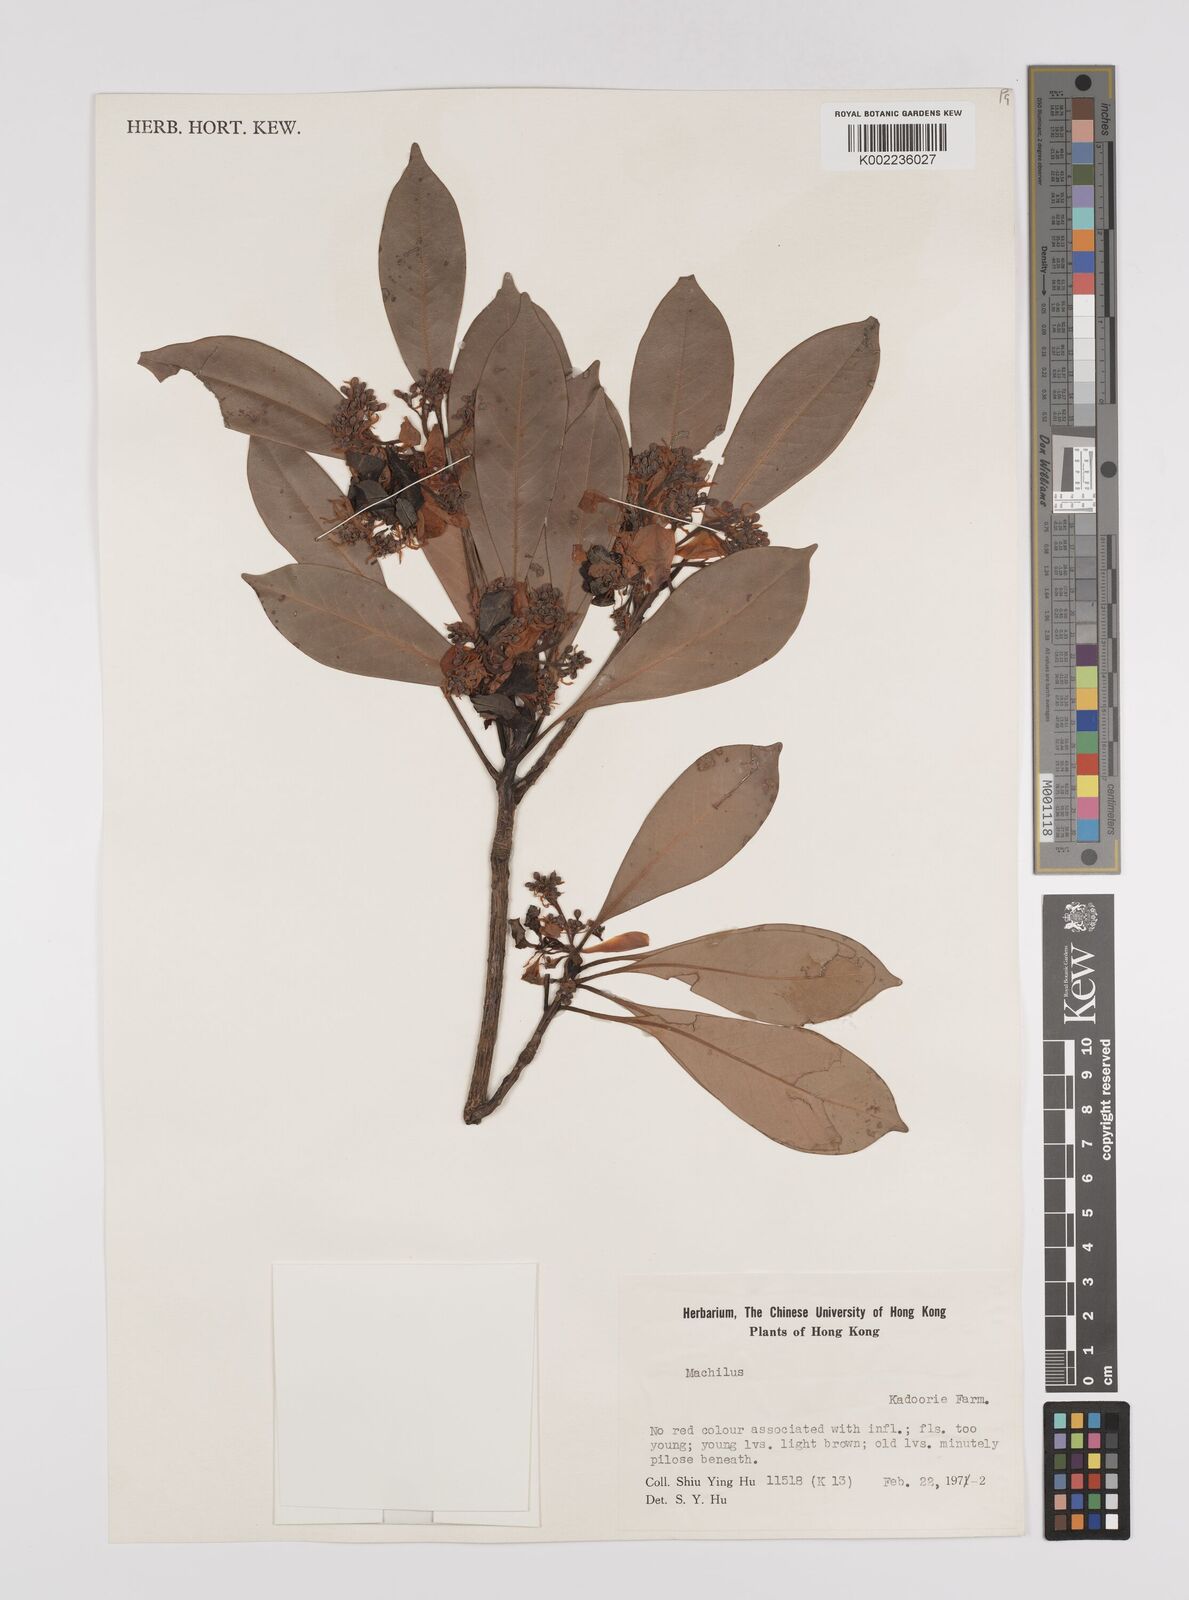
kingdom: Plantae
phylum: Tracheophyta
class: Magnoliopsida
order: Laurales
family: Lauraceae
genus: Persea
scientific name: Persea
